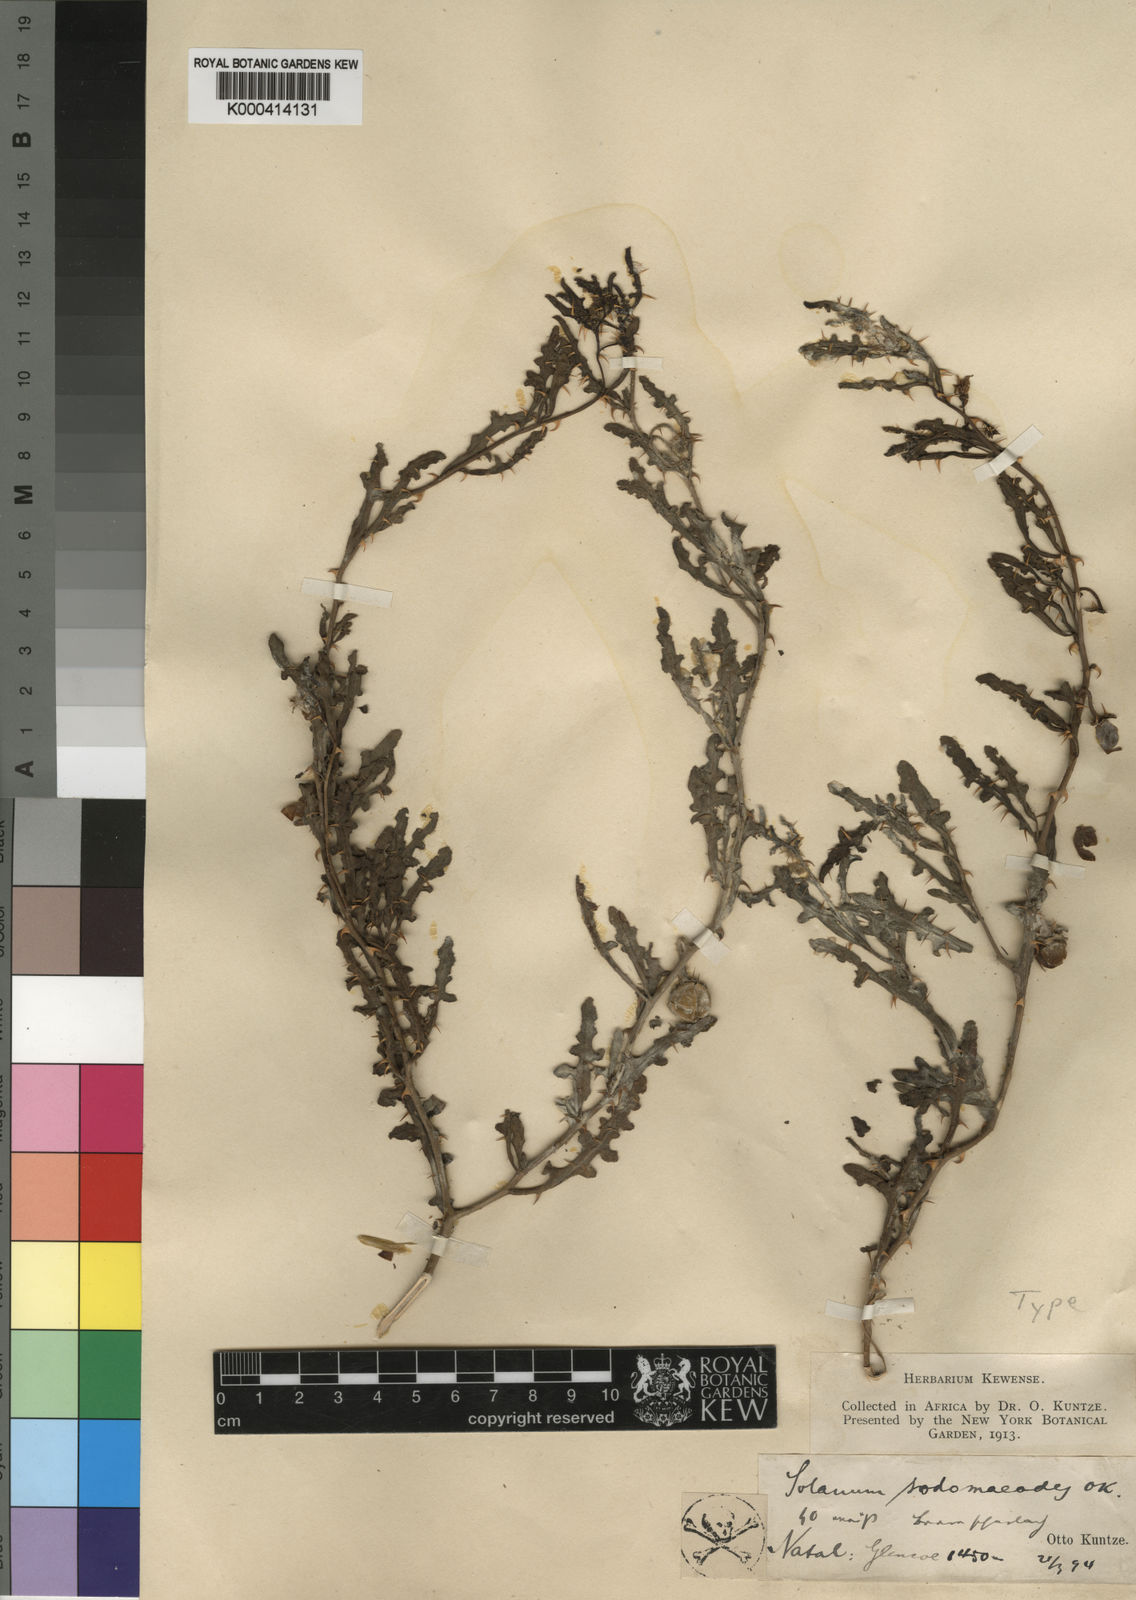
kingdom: Plantae
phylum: Tracheophyta
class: Magnoliopsida
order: Solanales
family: Solanaceae
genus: Solanum
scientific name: Solanum sodomaeodes
